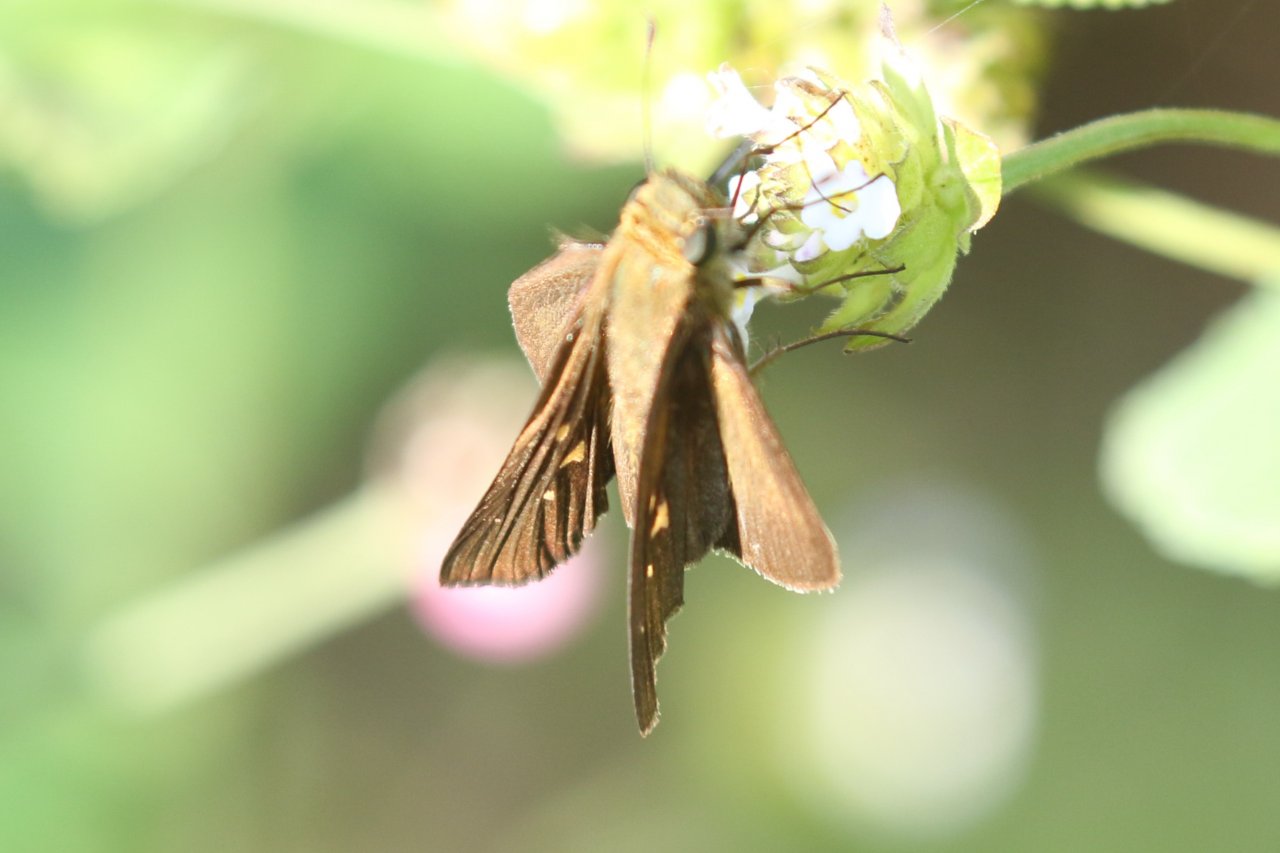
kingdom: Animalia
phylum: Arthropoda
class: Insecta
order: Lepidoptera
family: Hesperiidae
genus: Panoquina
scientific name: Panoquina hecebolus
